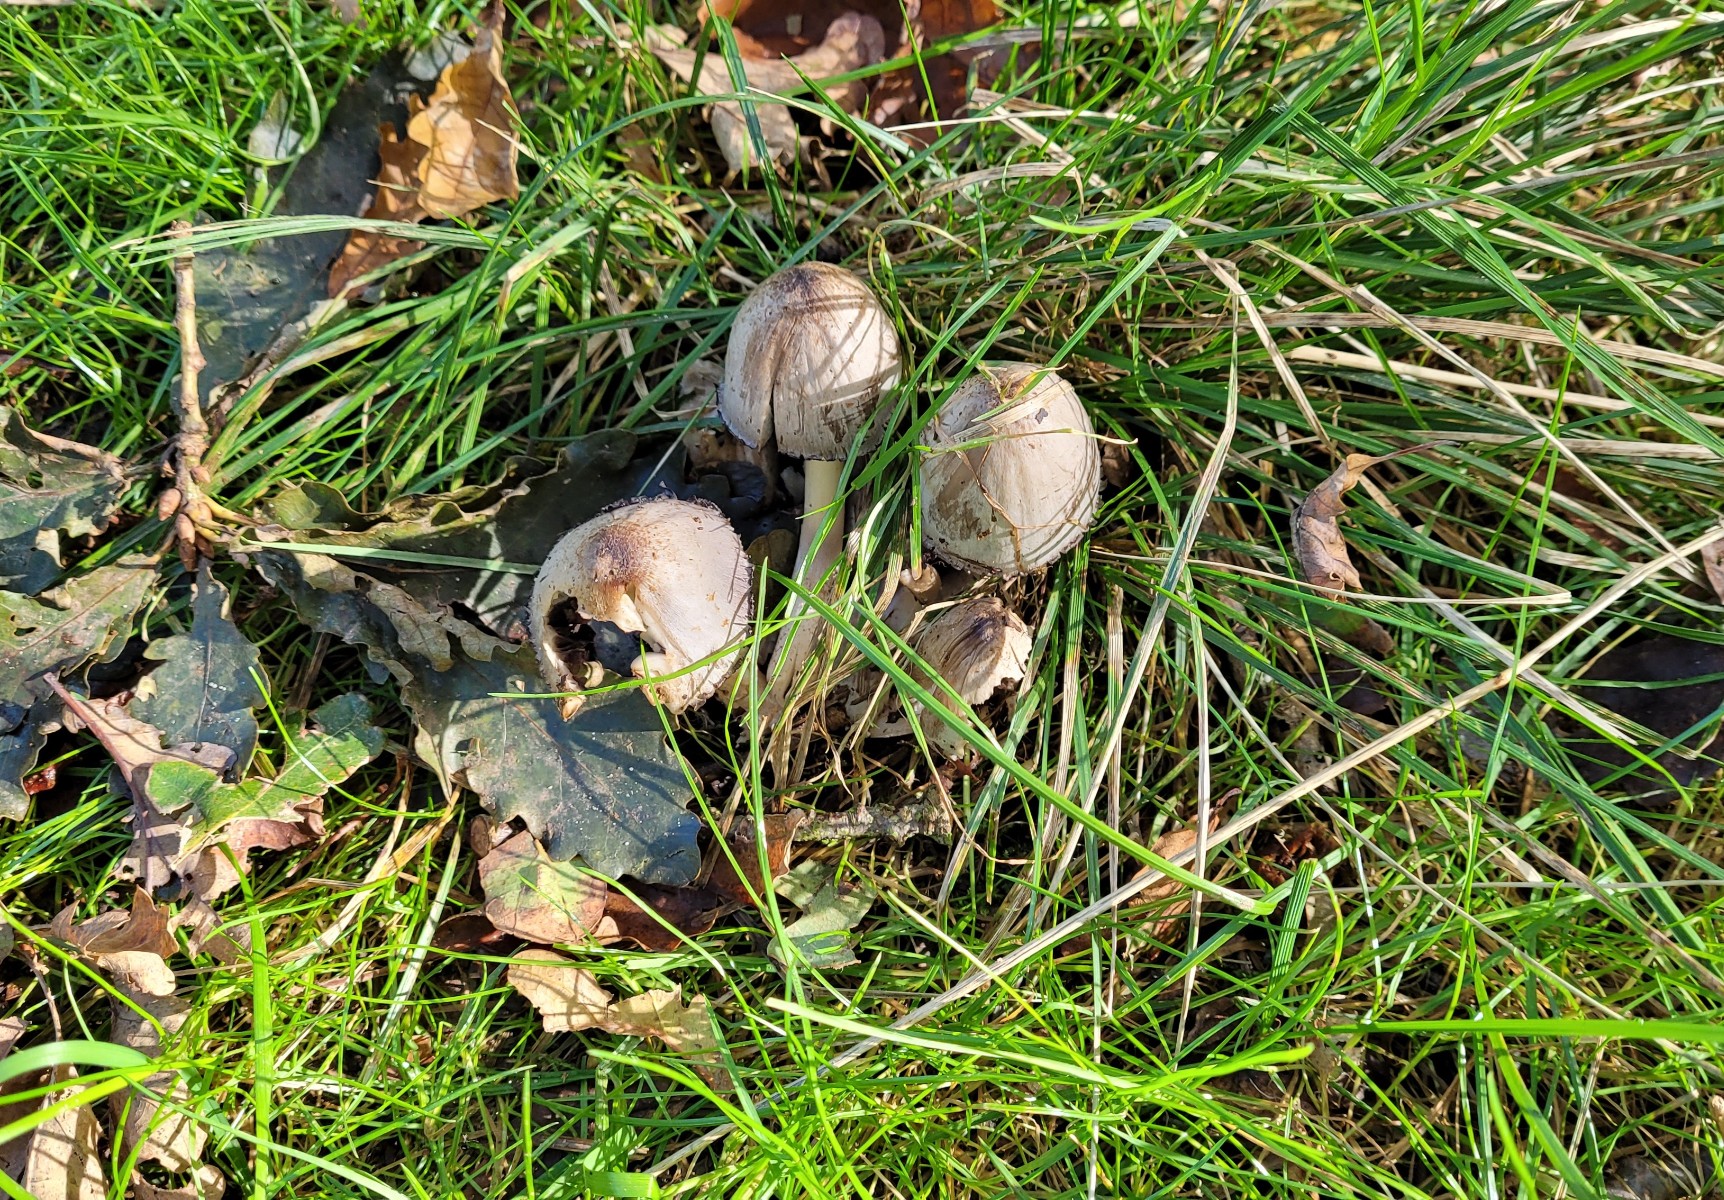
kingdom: Fungi
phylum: Basidiomycota
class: Agaricomycetes
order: Agaricales
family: Psathyrellaceae
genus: Coprinopsis
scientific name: Coprinopsis atramentaria
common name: almindelig blækhat
